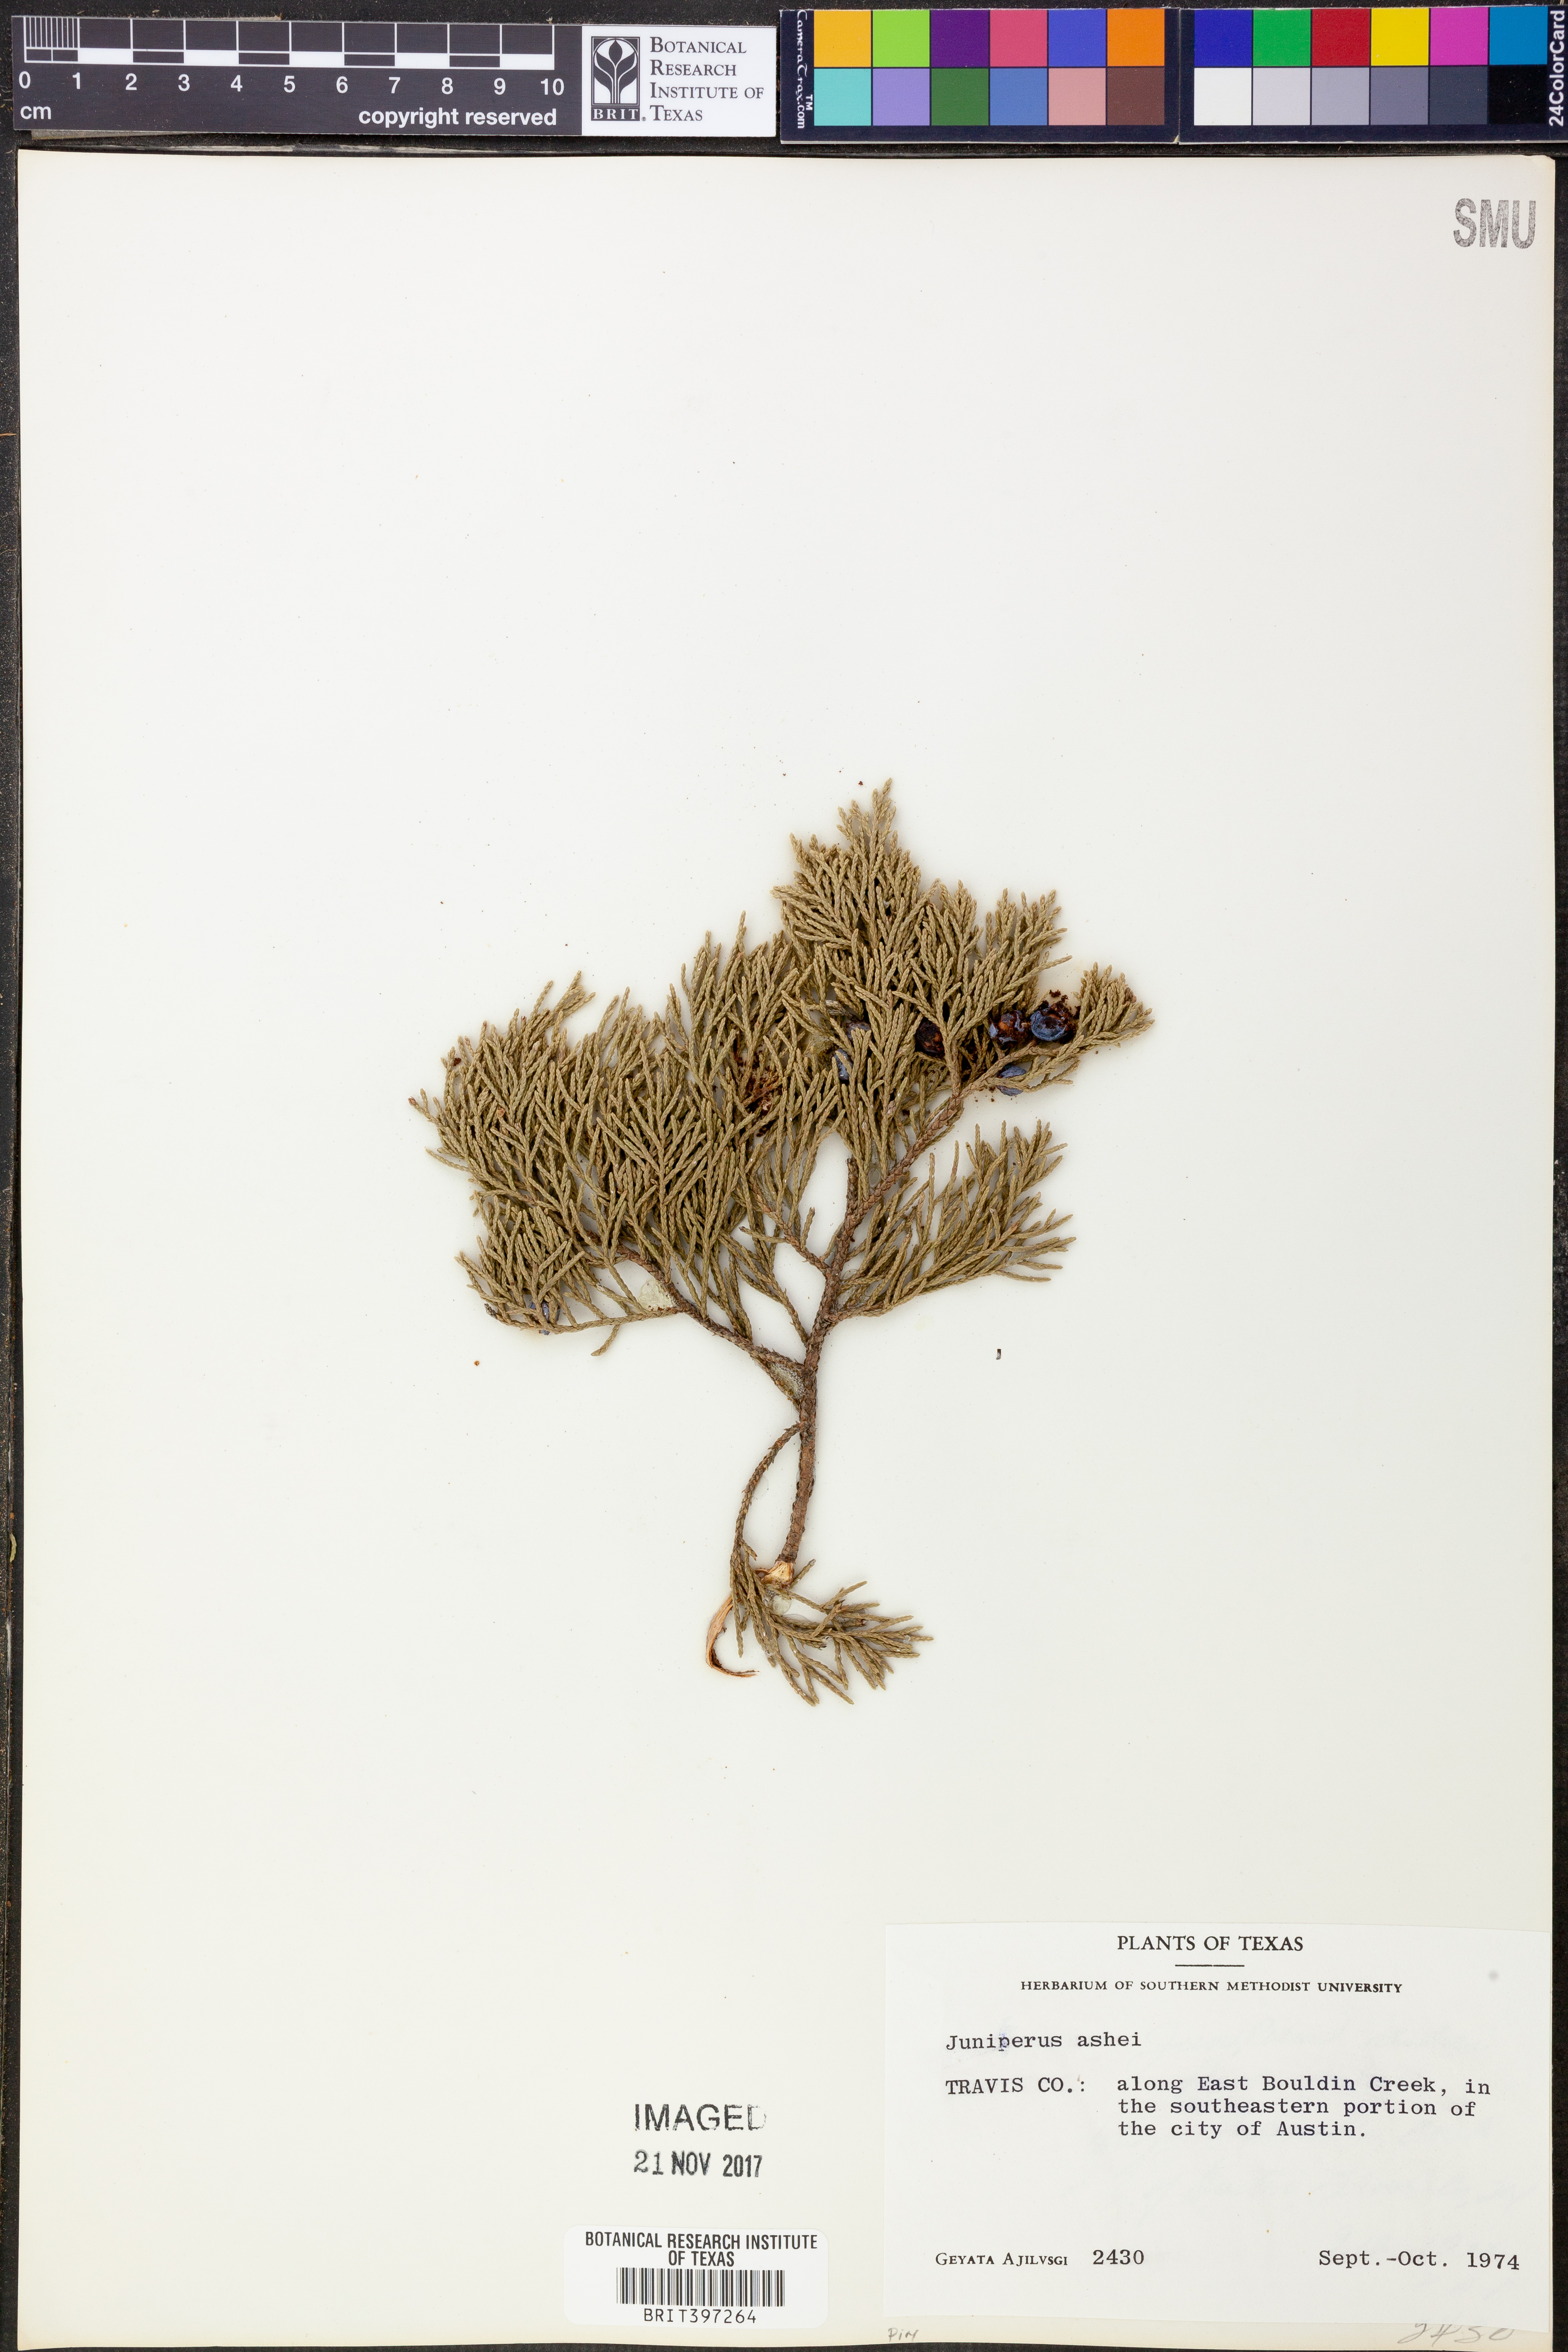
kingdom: Plantae
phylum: Tracheophyta
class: Pinopsida
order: Pinales
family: Cupressaceae
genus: Juniperus
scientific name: Juniperus ashei
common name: Mexican juniper
